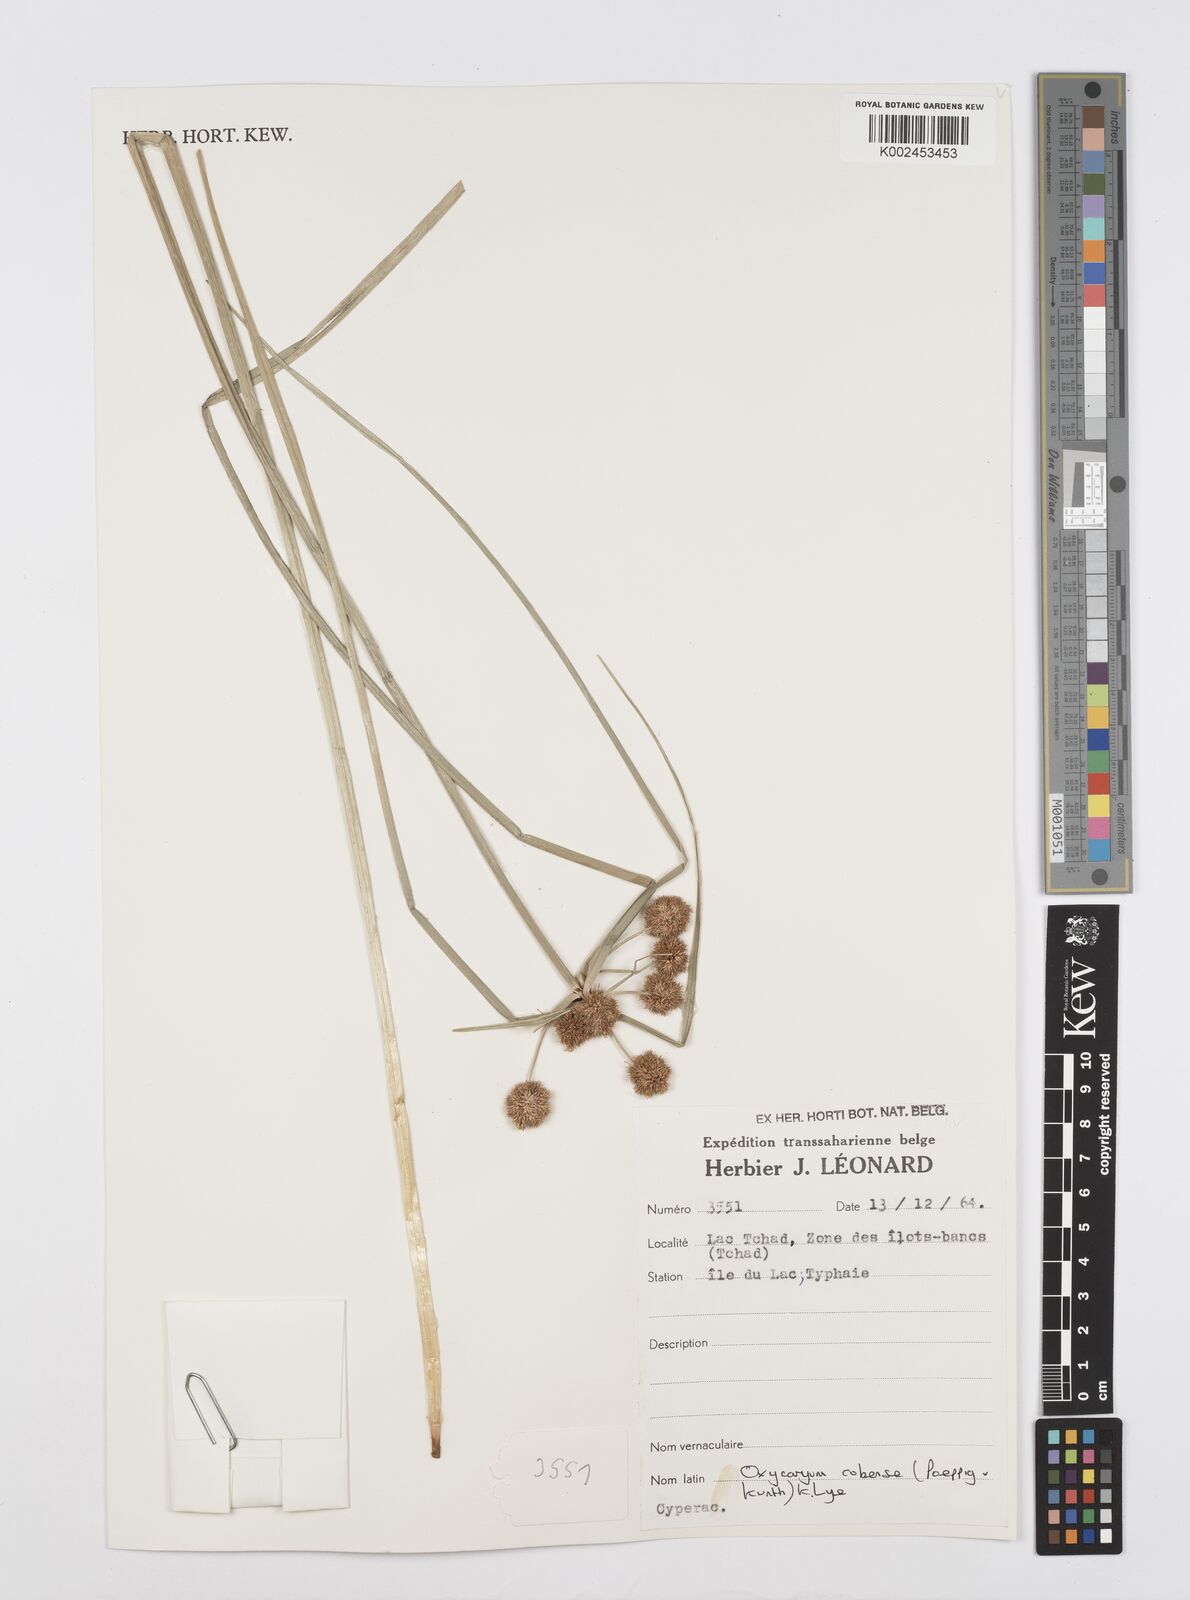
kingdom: Plantae
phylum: Tracheophyta
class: Liliopsida
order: Poales
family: Cyperaceae
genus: Cyperus
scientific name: Cyperus elegans
